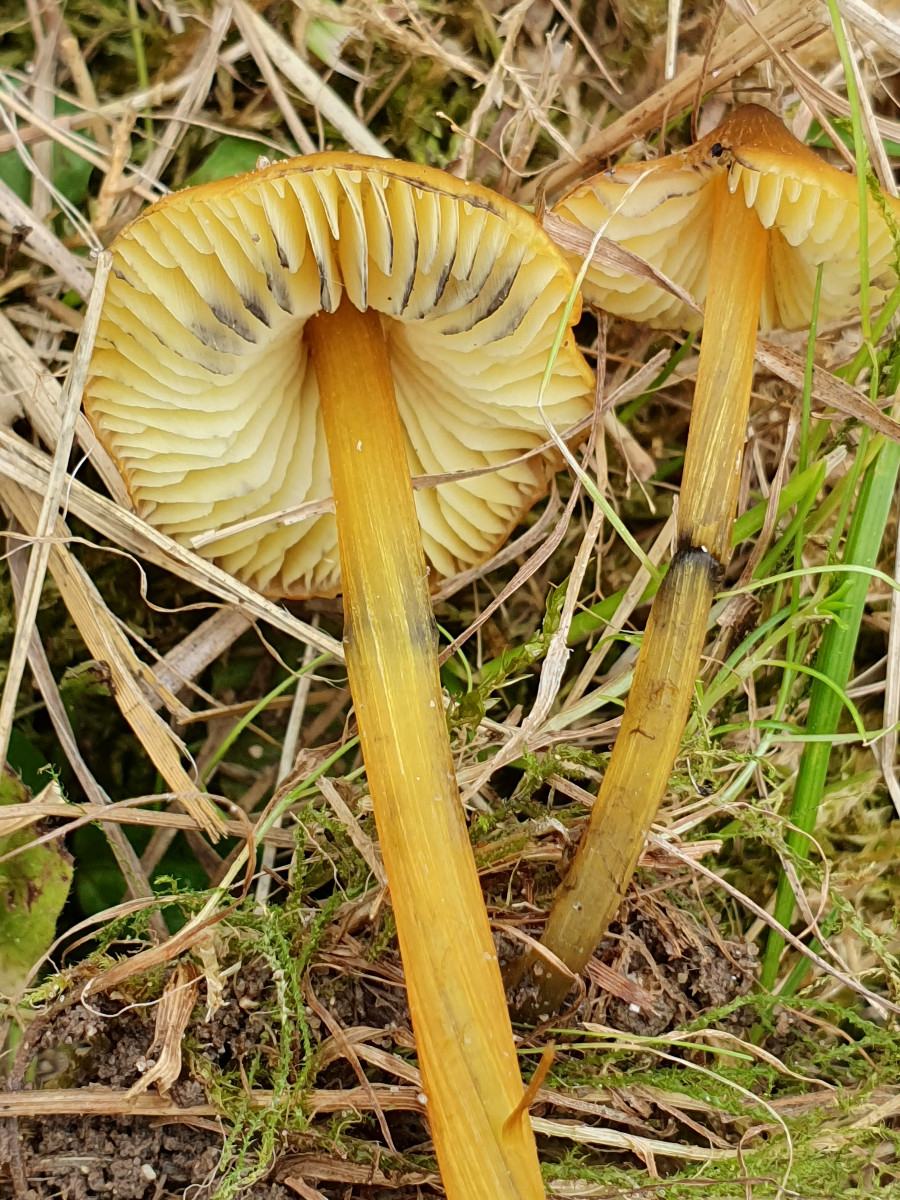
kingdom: Fungi
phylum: Basidiomycota
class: Agaricomycetes
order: Agaricales
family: Hygrophoraceae
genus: Hygrocybe
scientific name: Hygrocybe conica
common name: kegle-vokshat
